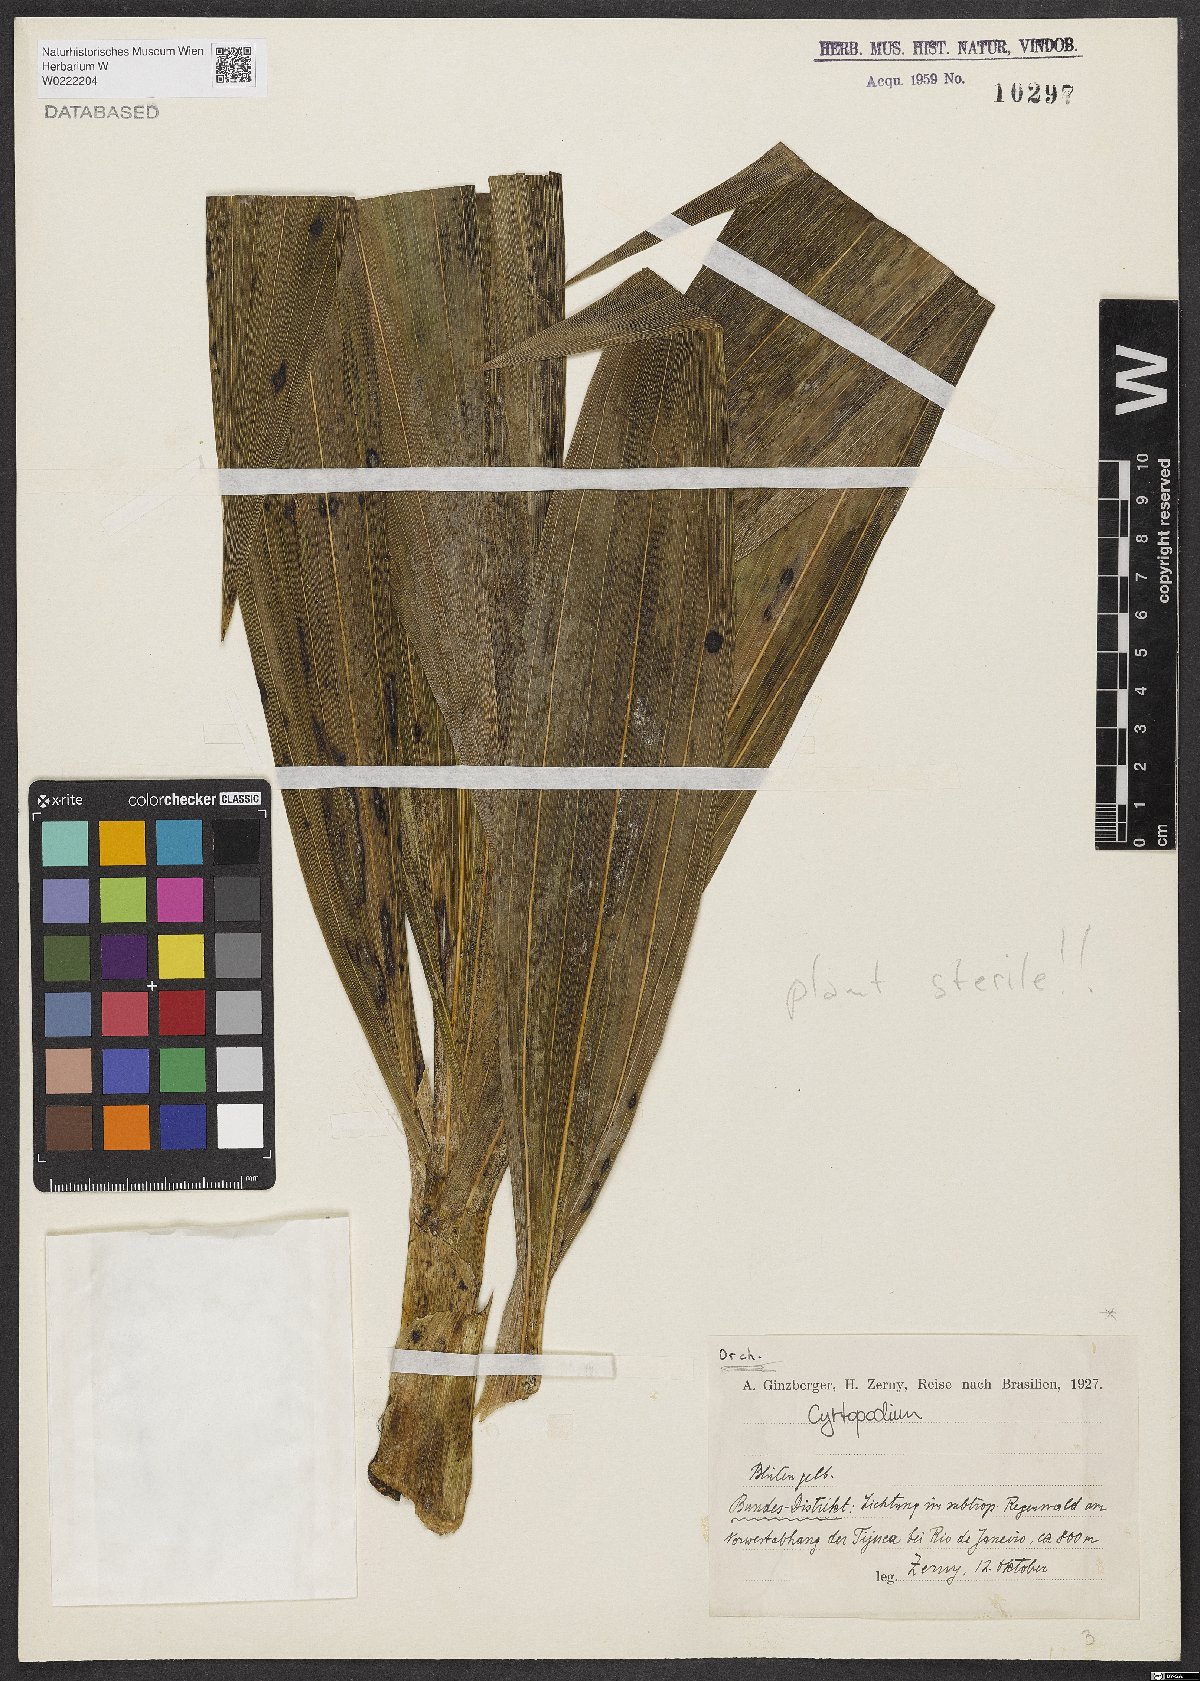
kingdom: Plantae
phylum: Tracheophyta
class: Liliopsida
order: Asparagales
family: Orchidaceae
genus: Cyrtopodium
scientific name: Cyrtopodium
